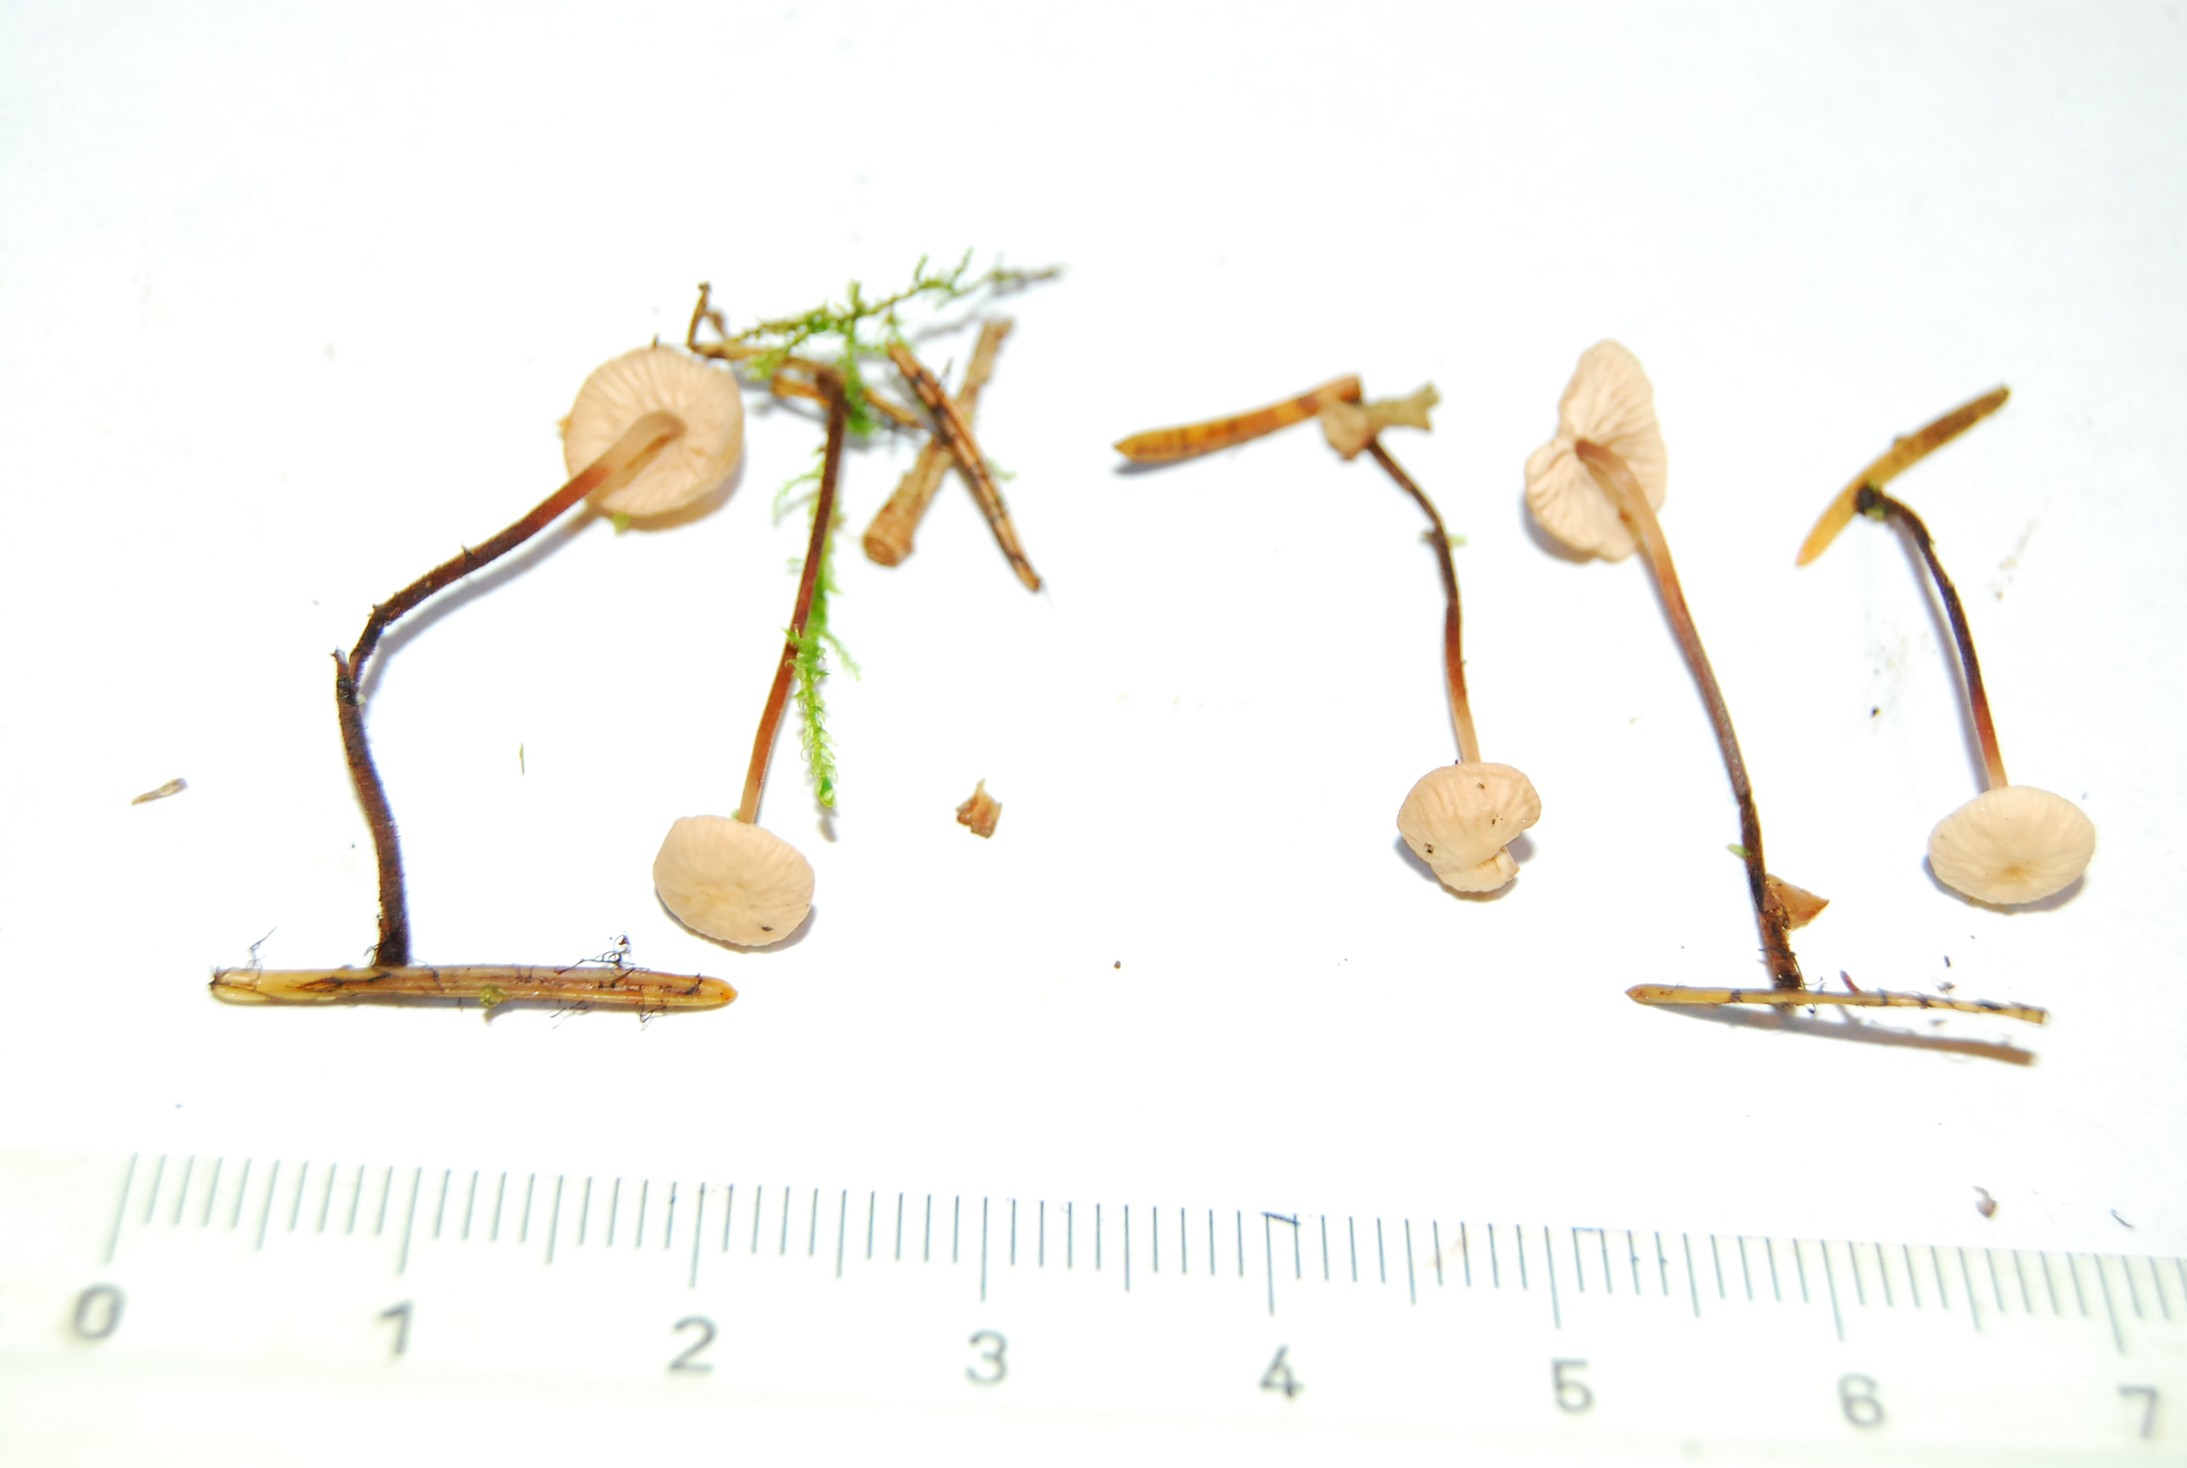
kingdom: Fungi
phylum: Basidiomycota
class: Agaricomycetes
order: Agaricales
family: Omphalotaceae
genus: Paragymnopus
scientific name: Paragymnopus perforans
